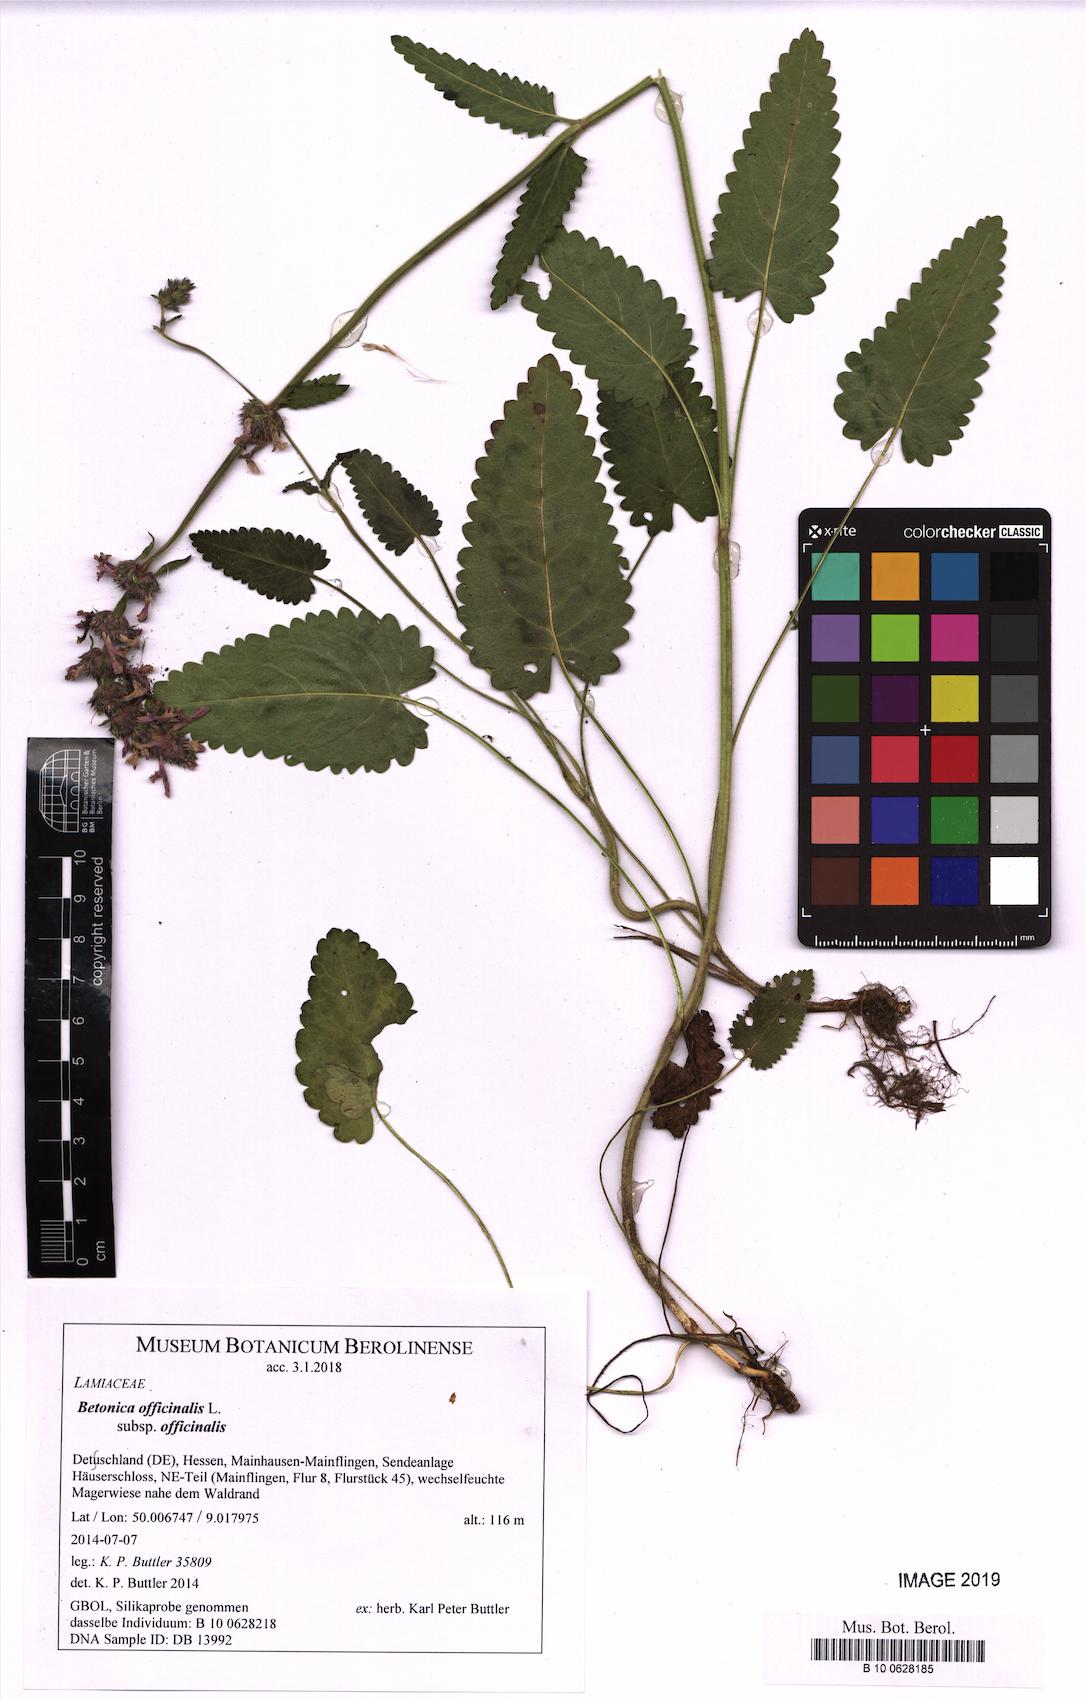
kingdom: Plantae
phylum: Tracheophyta
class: Magnoliopsida
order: Lamiales
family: Lamiaceae
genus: Betonica
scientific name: Betonica officinalis
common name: Bishop's-wort
